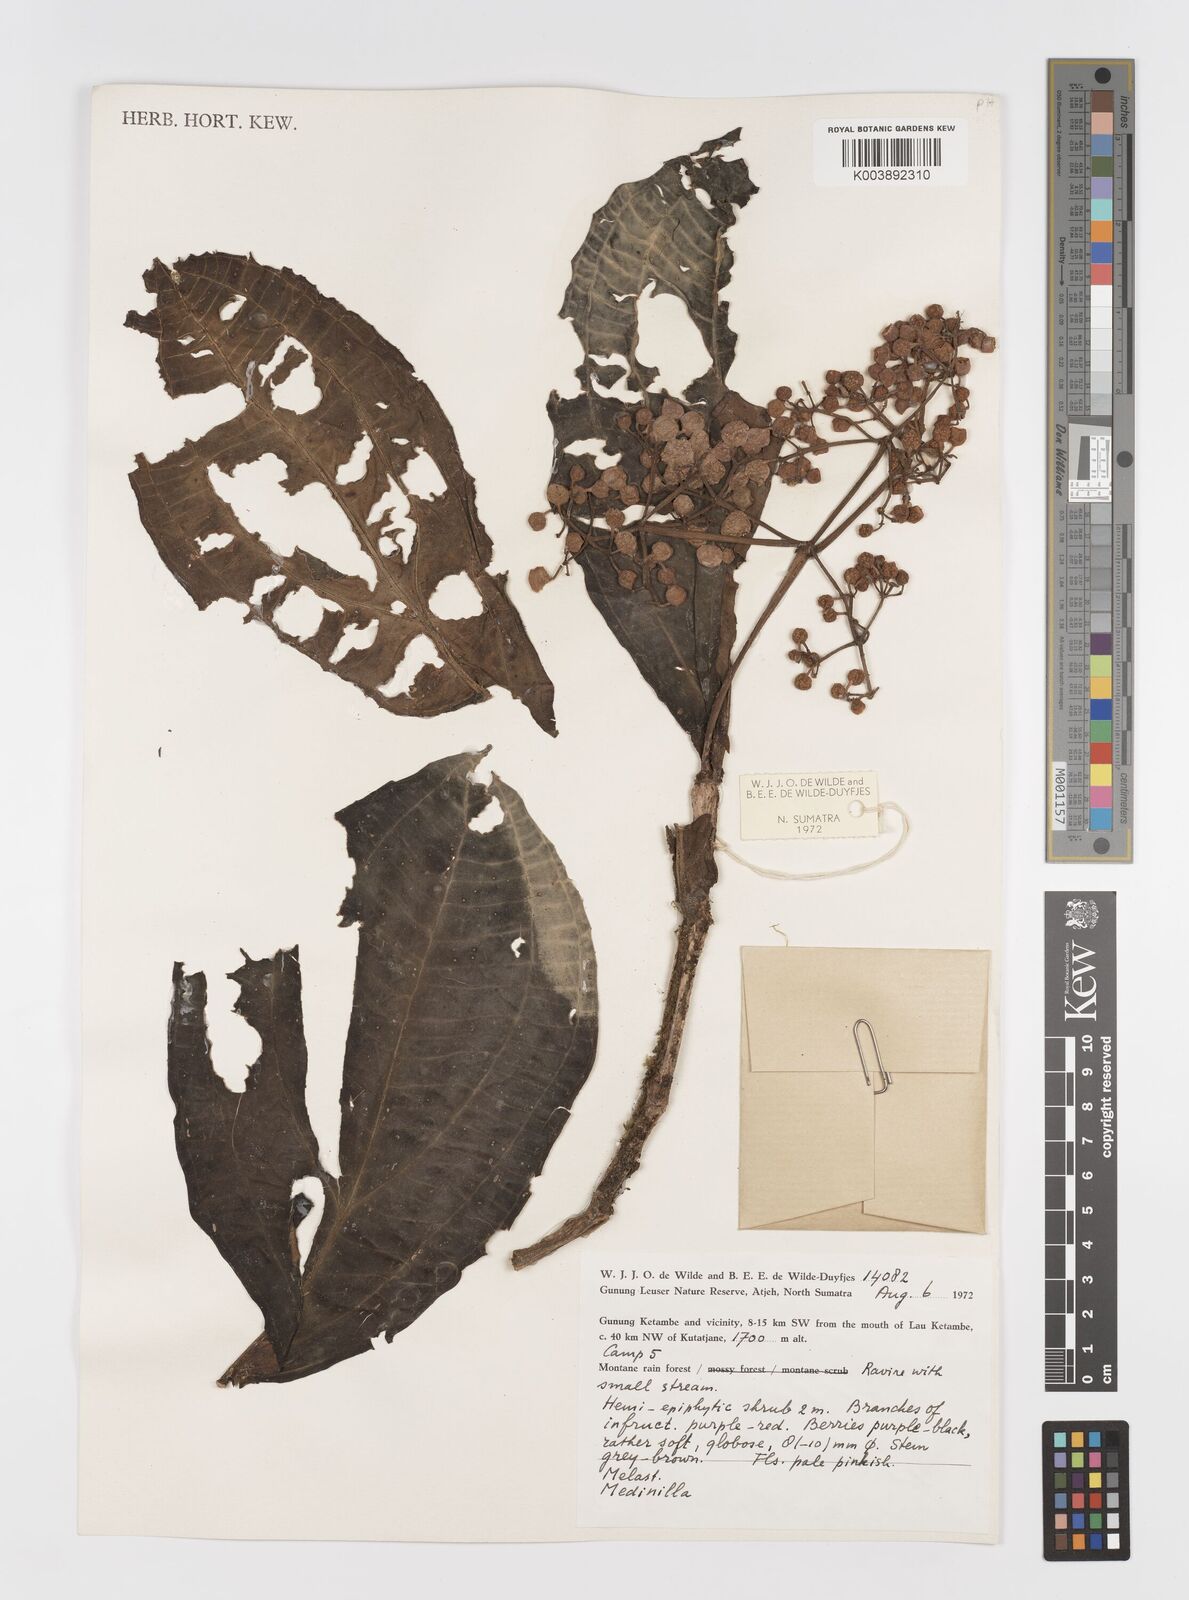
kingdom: Plantae
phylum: Tracheophyta
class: Magnoliopsida
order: Myrtales
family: Melastomataceae
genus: Medinilla
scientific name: Medinilla
